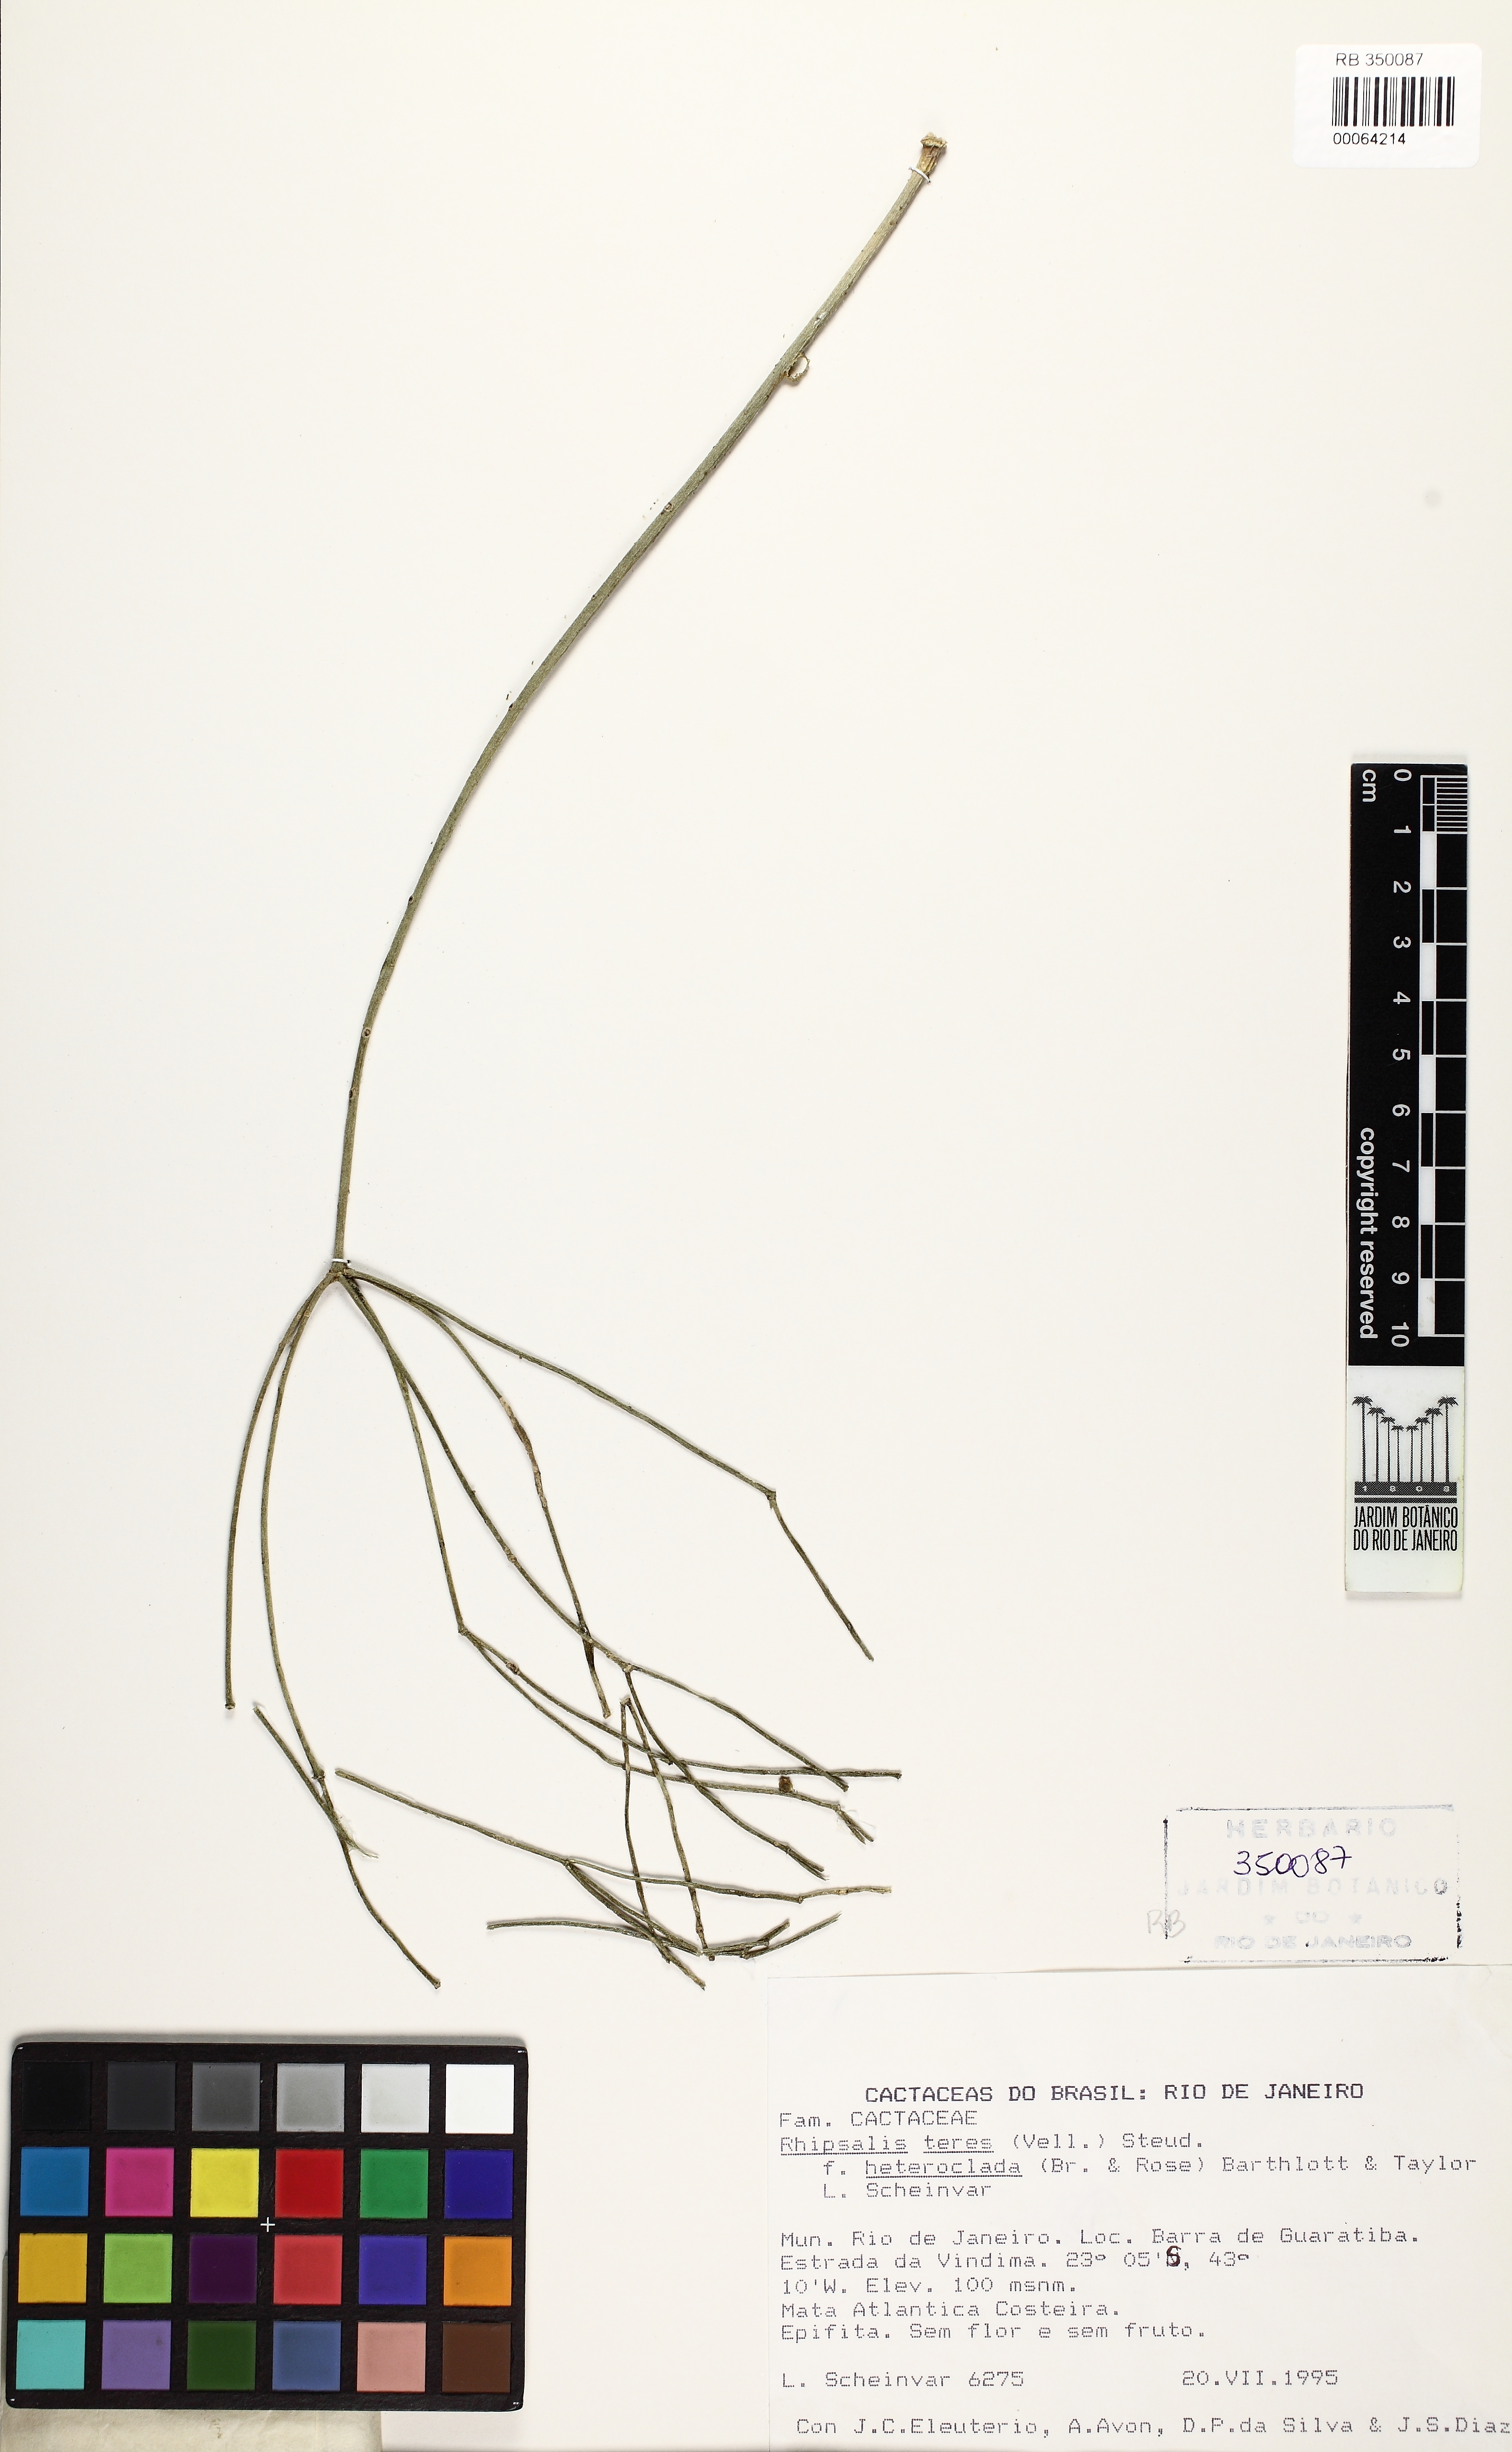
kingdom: Plantae
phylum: Tracheophyta
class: Magnoliopsida
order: Caryophyllales
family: Cactaceae
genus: Rhipsalis
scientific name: Rhipsalis teres
